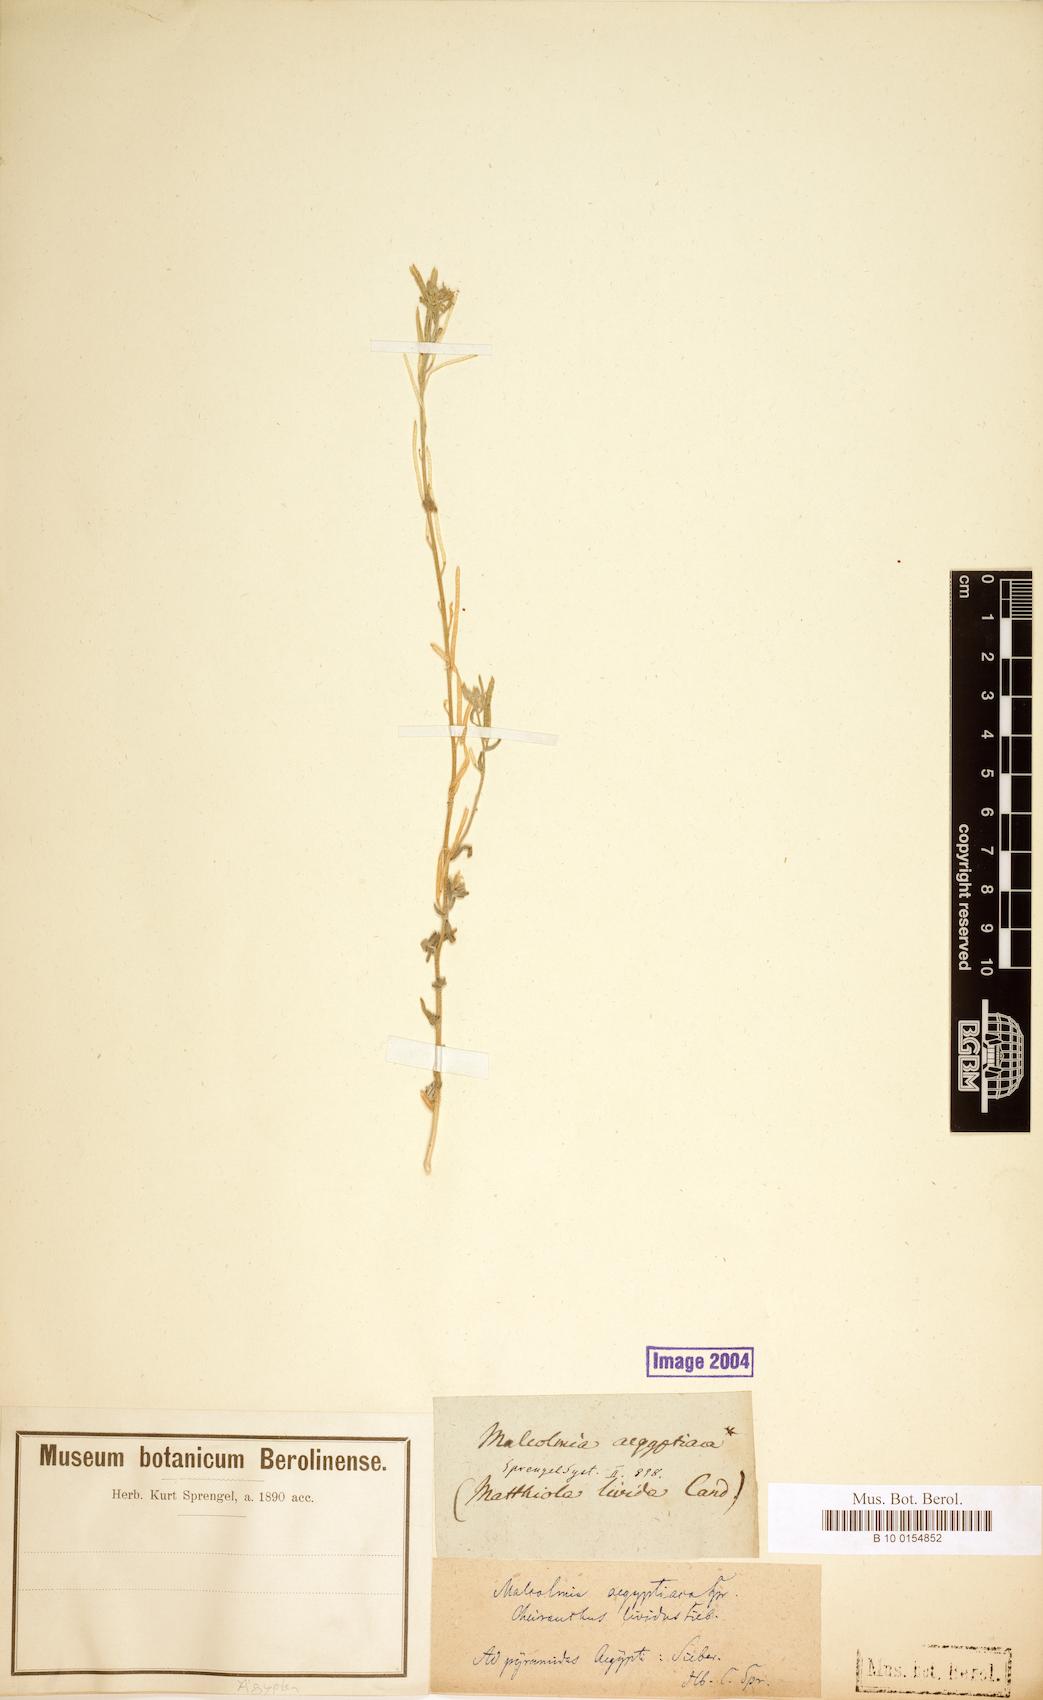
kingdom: Plantae
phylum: Tracheophyta
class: Magnoliopsida
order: Brassicales
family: Brassicaceae
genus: Eremobium
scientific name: Eremobium aegyptiacum
